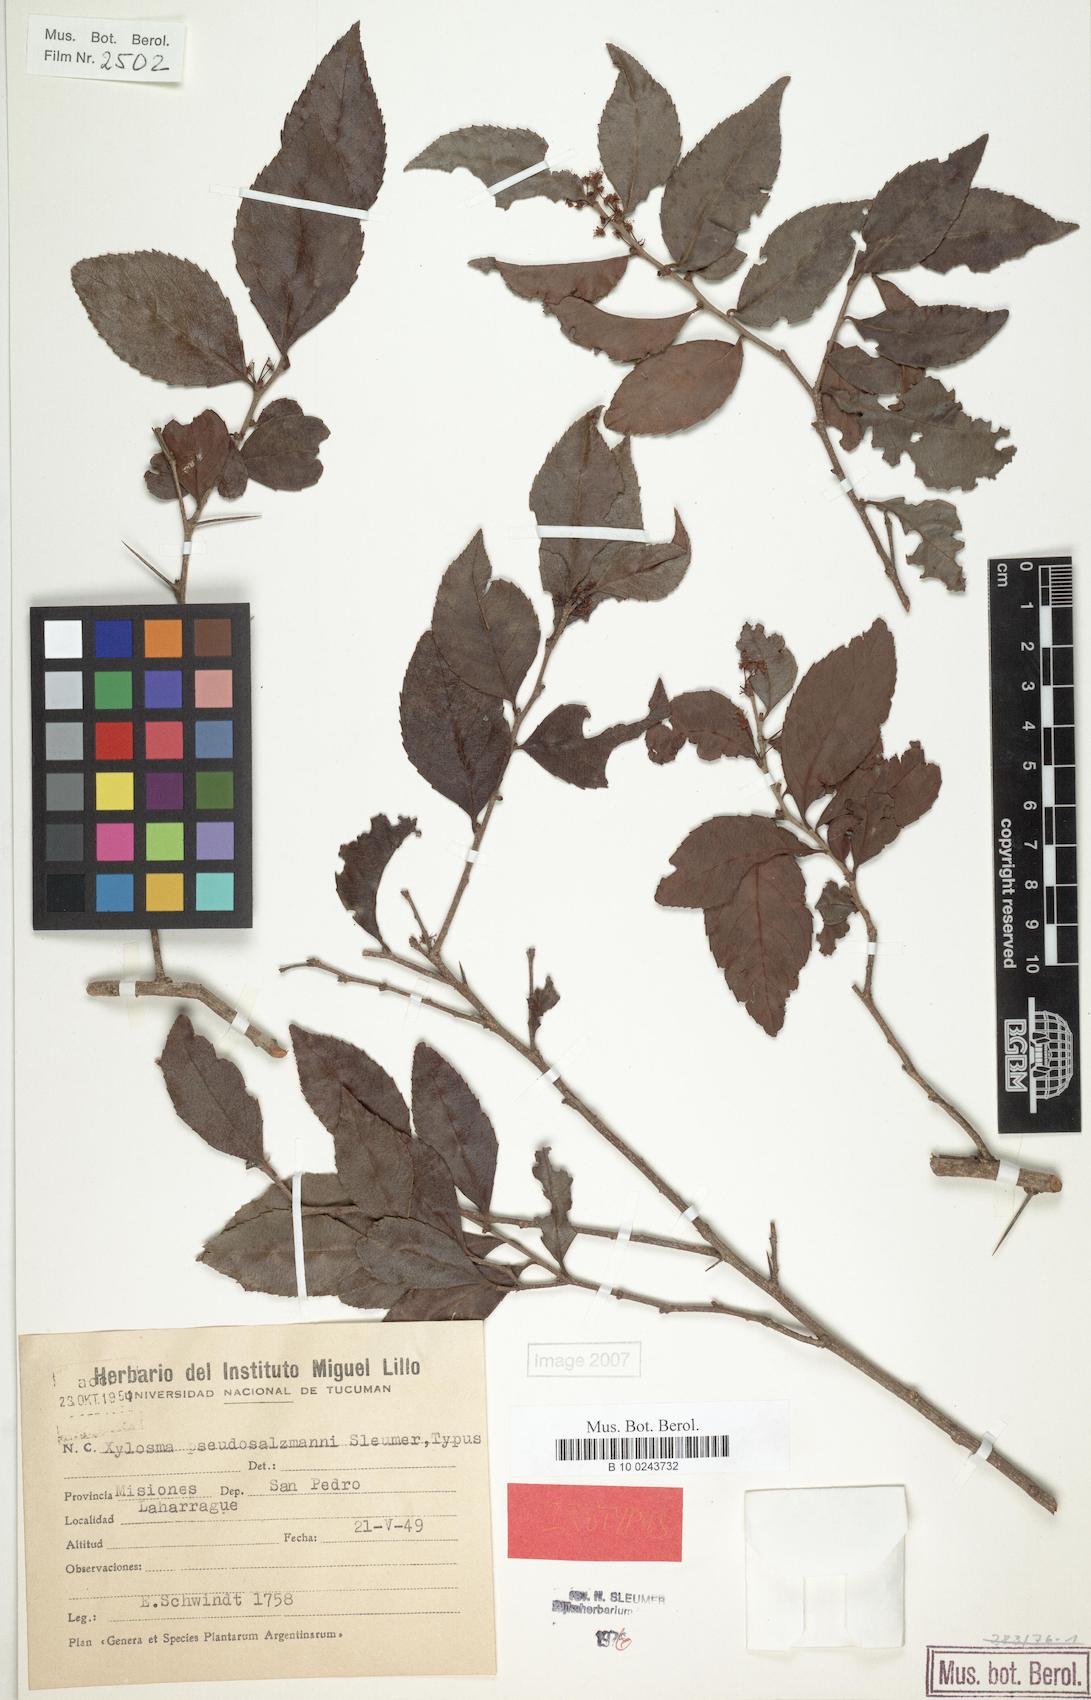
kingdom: Plantae
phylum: Tracheophyta
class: Magnoliopsida
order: Malpighiales
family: Salicaceae
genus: Xylosma
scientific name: Xylosma pseudosalzmannii
